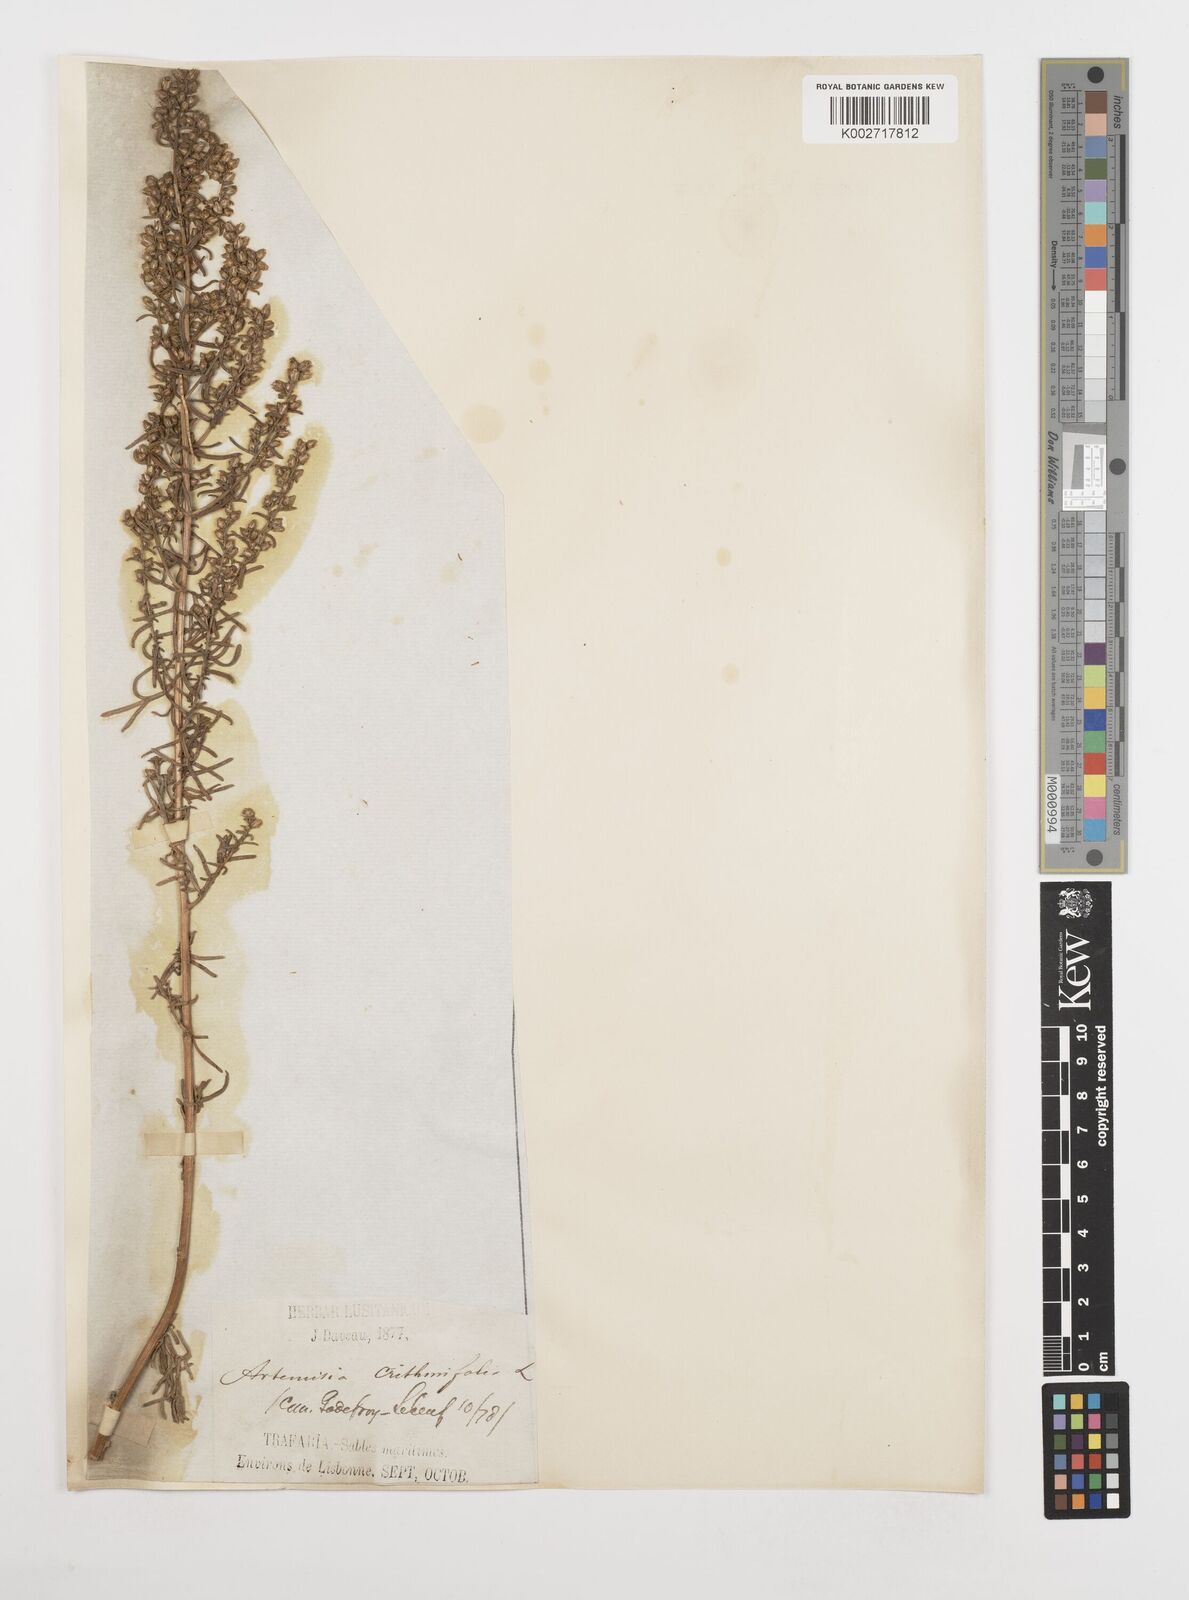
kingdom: Plantae
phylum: Tracheophyta
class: Magnoliopsida
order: Asterales
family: Asteraceae
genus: Artemisia
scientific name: Artemisia crithmifolia
